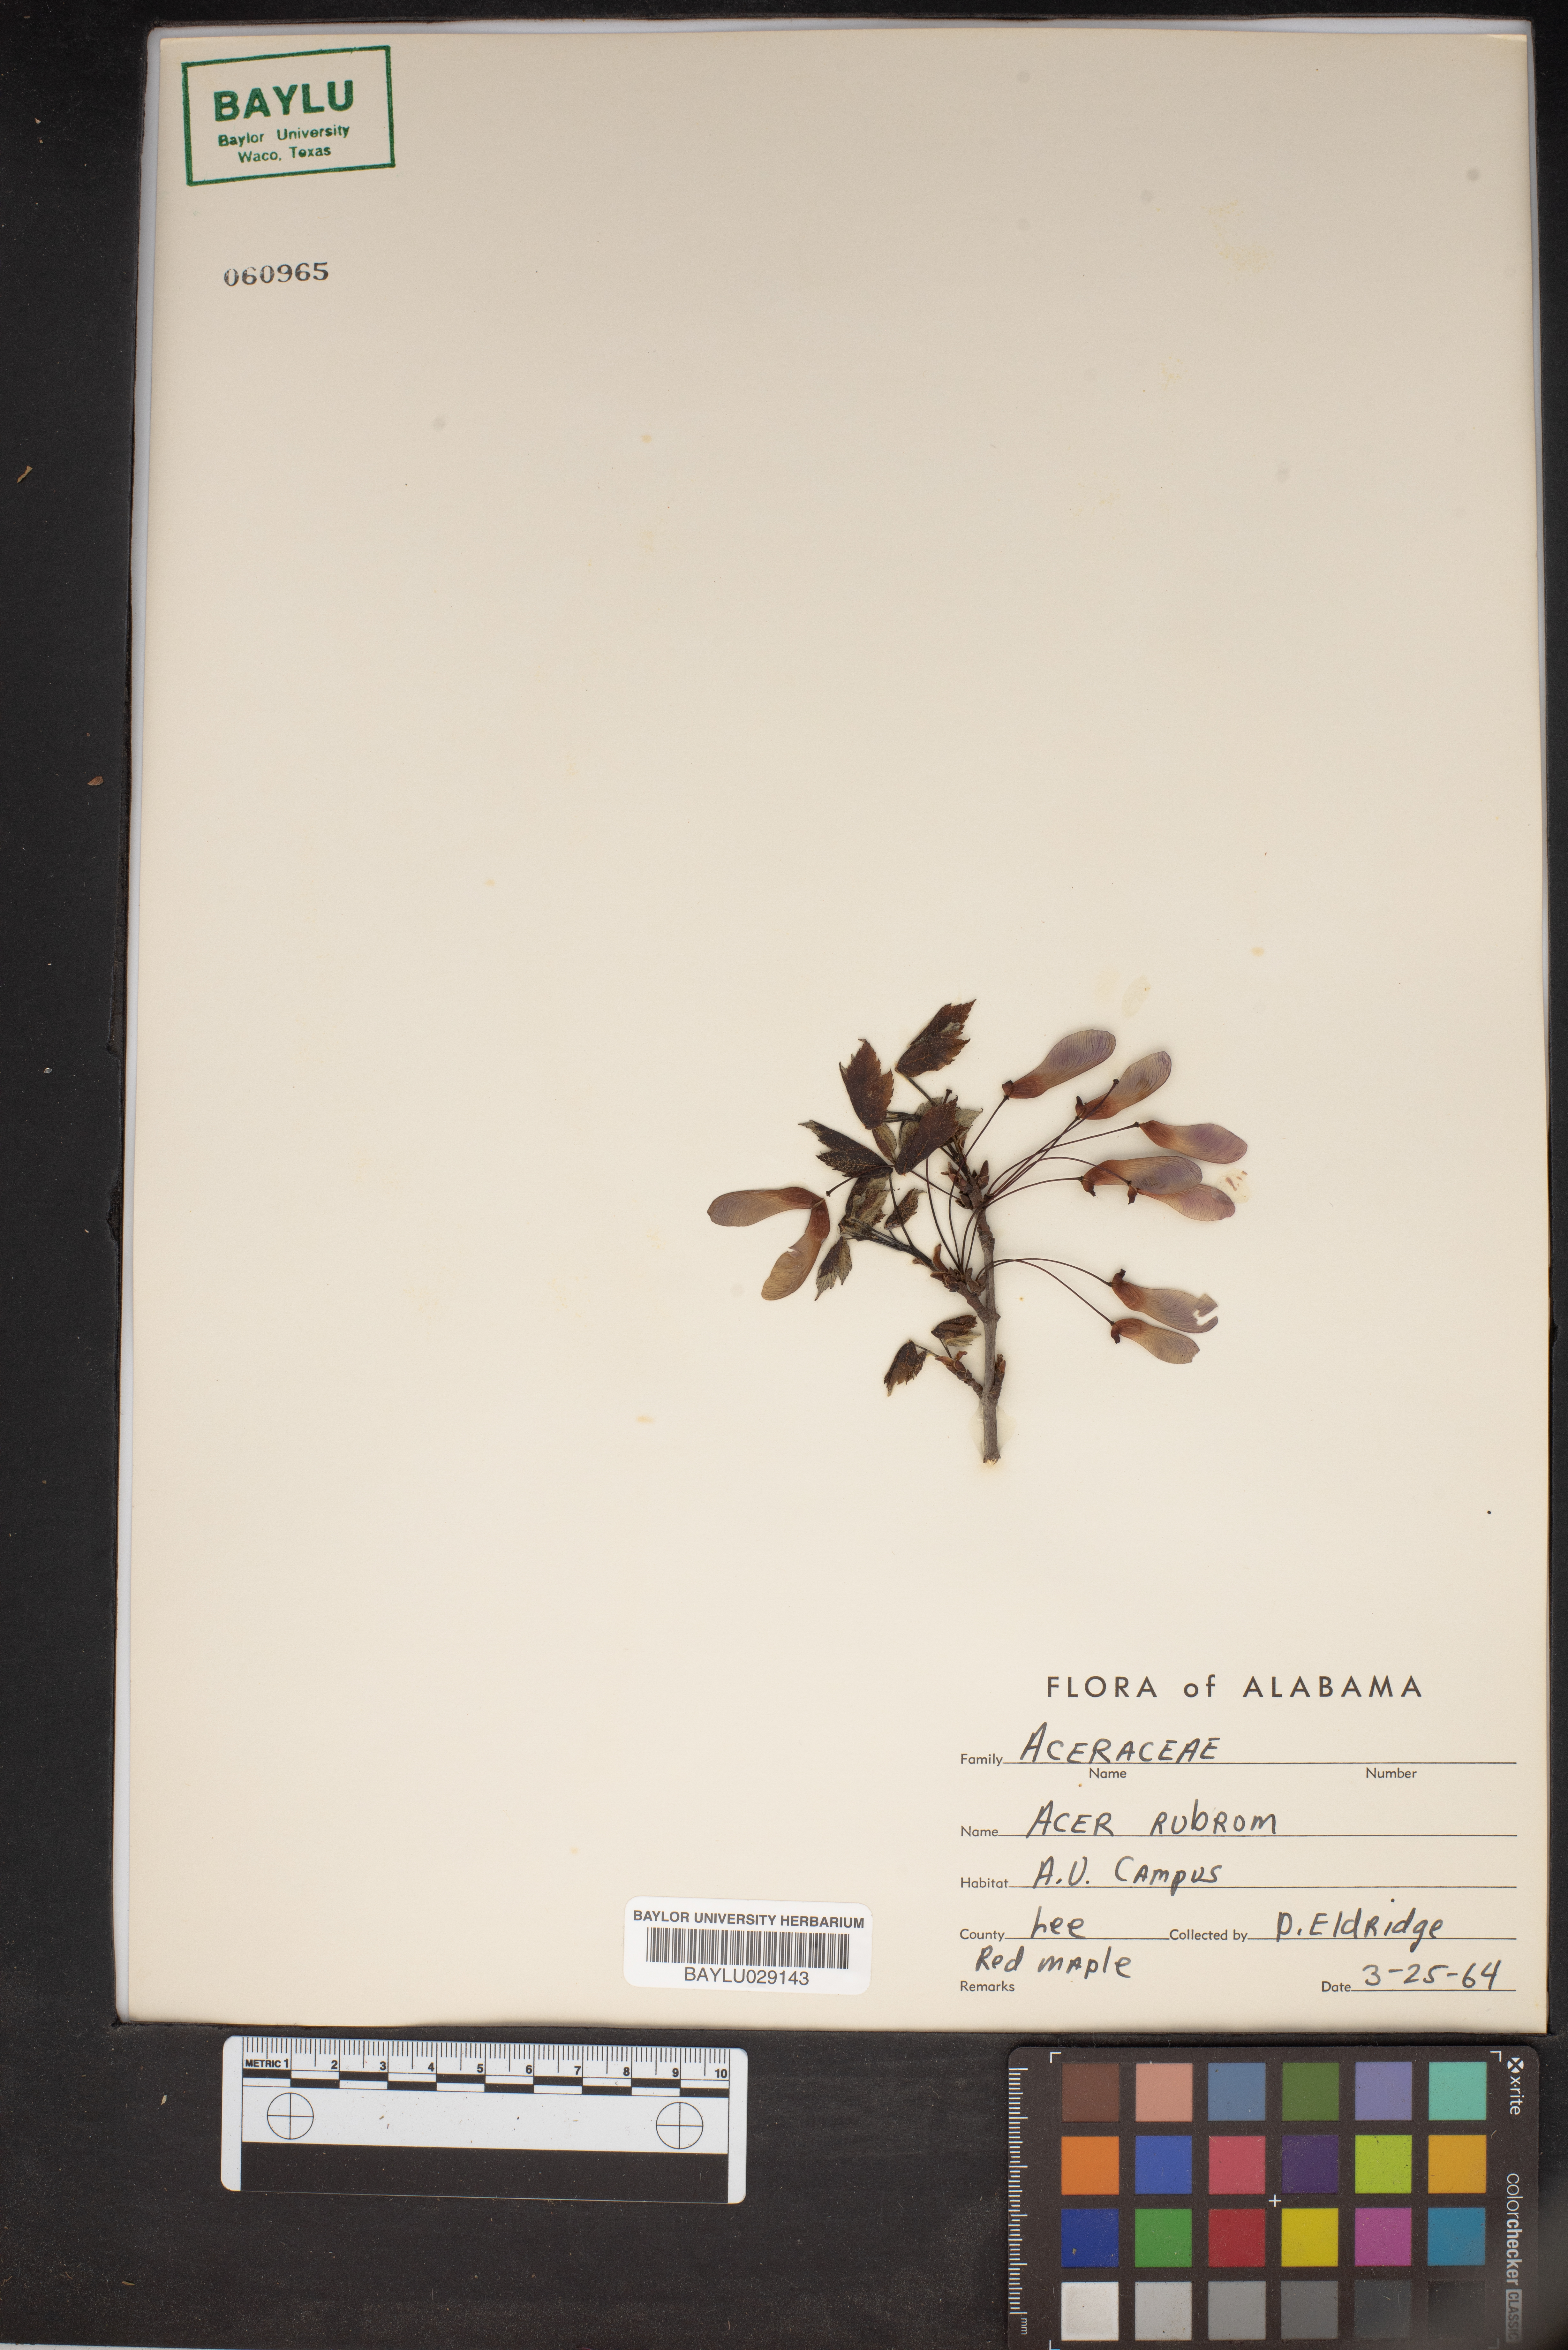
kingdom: Plantae
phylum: Tracheophyta
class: Magnoliopsida
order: Sapindales
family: Sapindaceae
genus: Acer
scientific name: Acer rubrum
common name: Red maple
